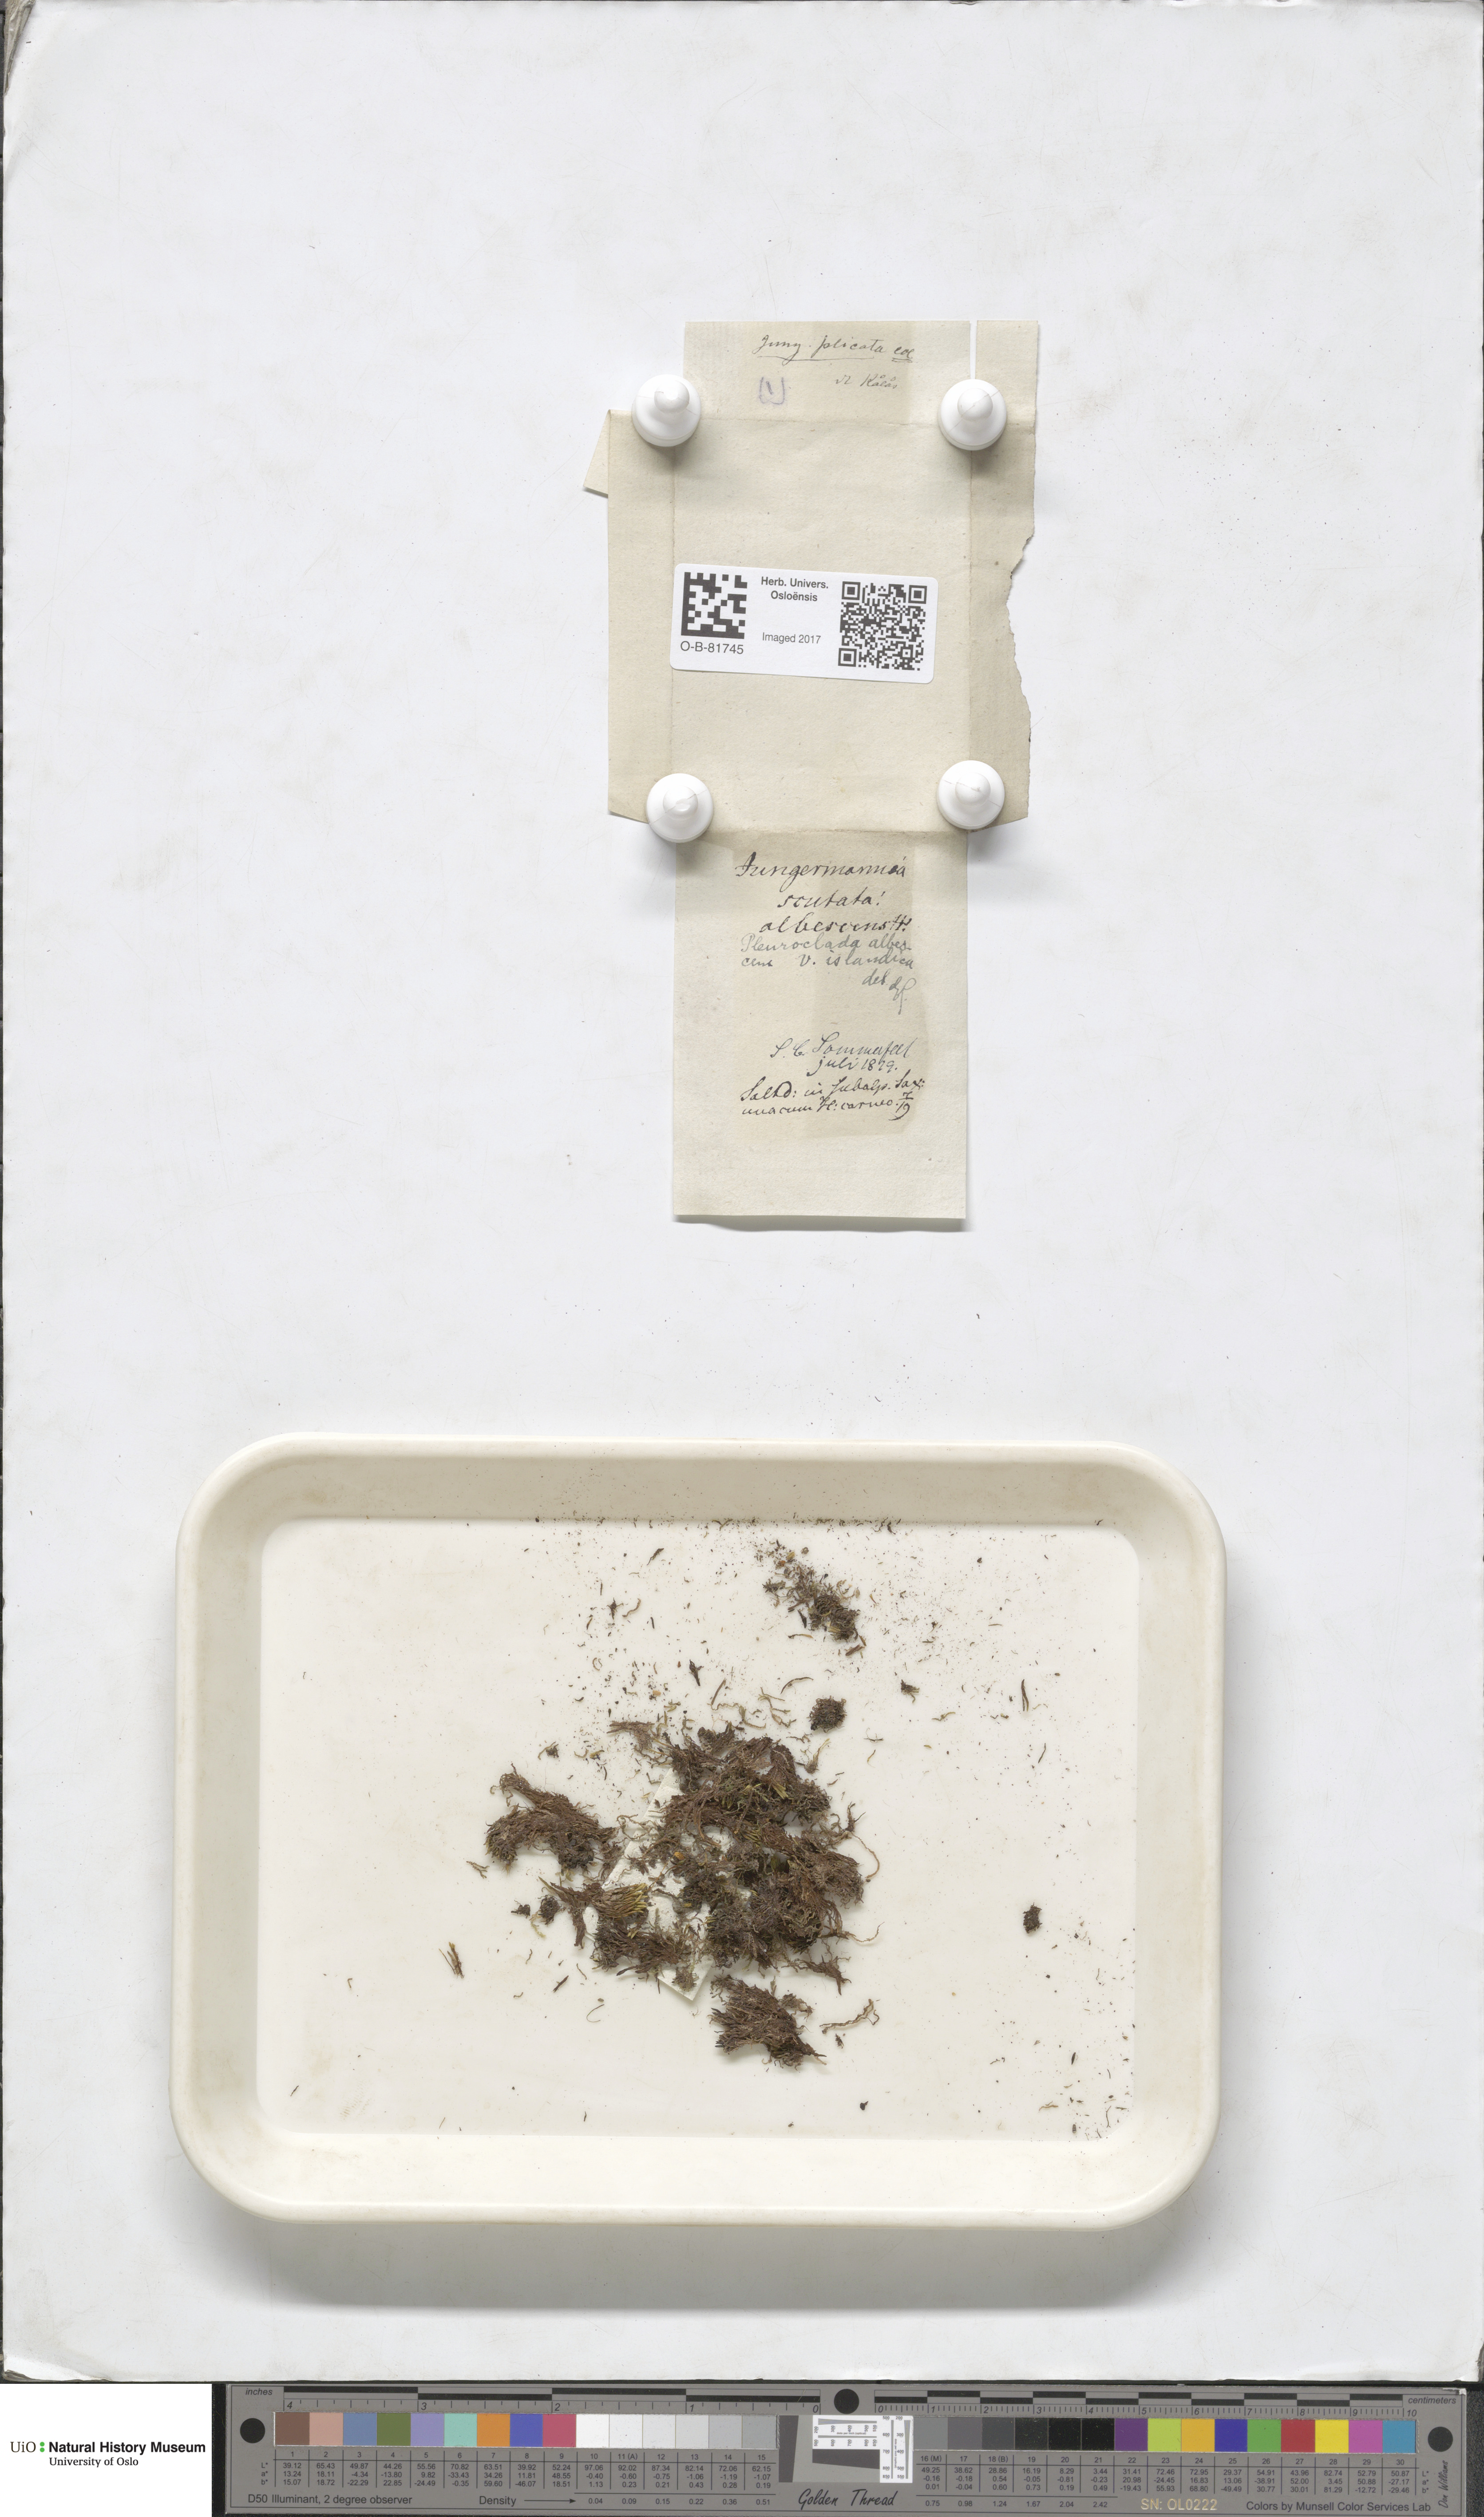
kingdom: Plantae
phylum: Marchantiophyta
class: Jungermanniopsida
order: Jungermanniales
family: Cephaloziaceae
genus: Fuscocephaloziopsis
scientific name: Fuscocephaloziopsis albescens
